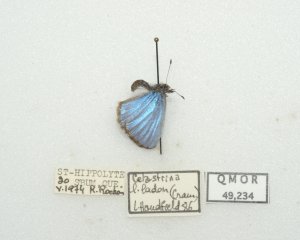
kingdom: Animalia
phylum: Arthropoda
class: Insecta
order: Lepidoptera
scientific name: Lepidoptera
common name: Butterflies
